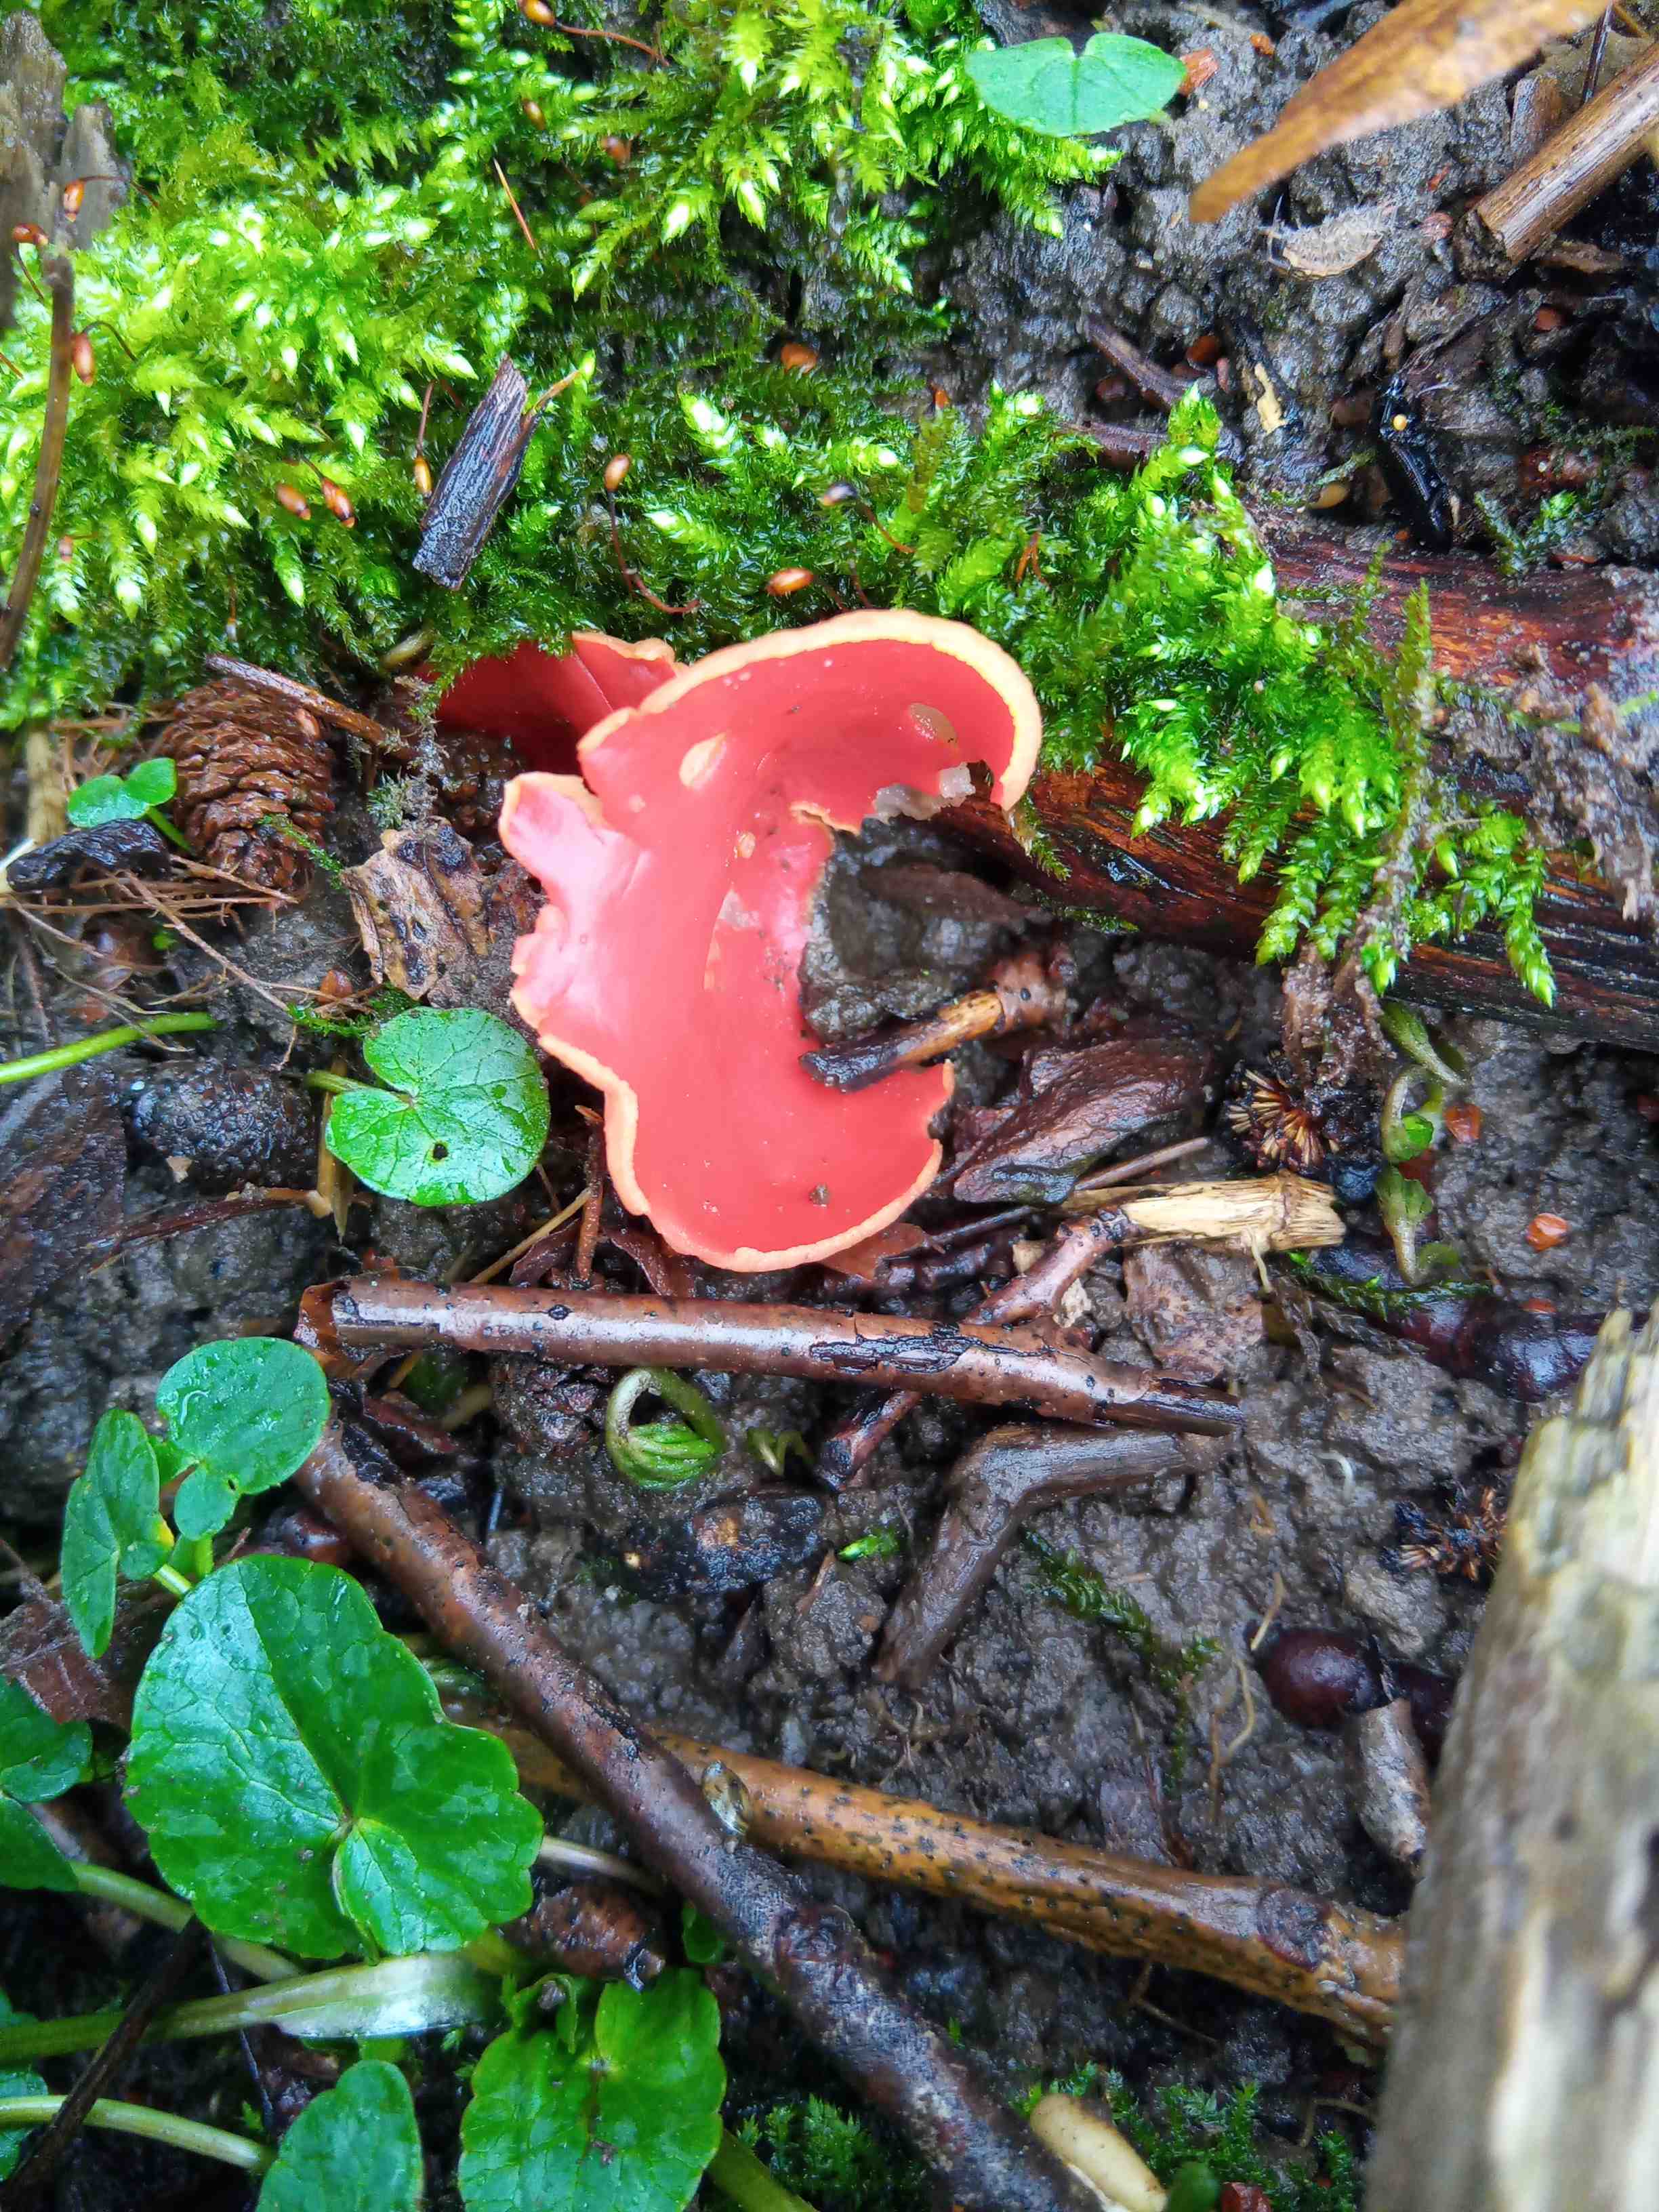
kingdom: Fungi
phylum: Ascomycota
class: Pezizomycetes
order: Pezizales
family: Sarcoscyphaceae
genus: Sarcoscypha
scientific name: Sarcoscypha austriaca
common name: krølhåret pragtbæger
